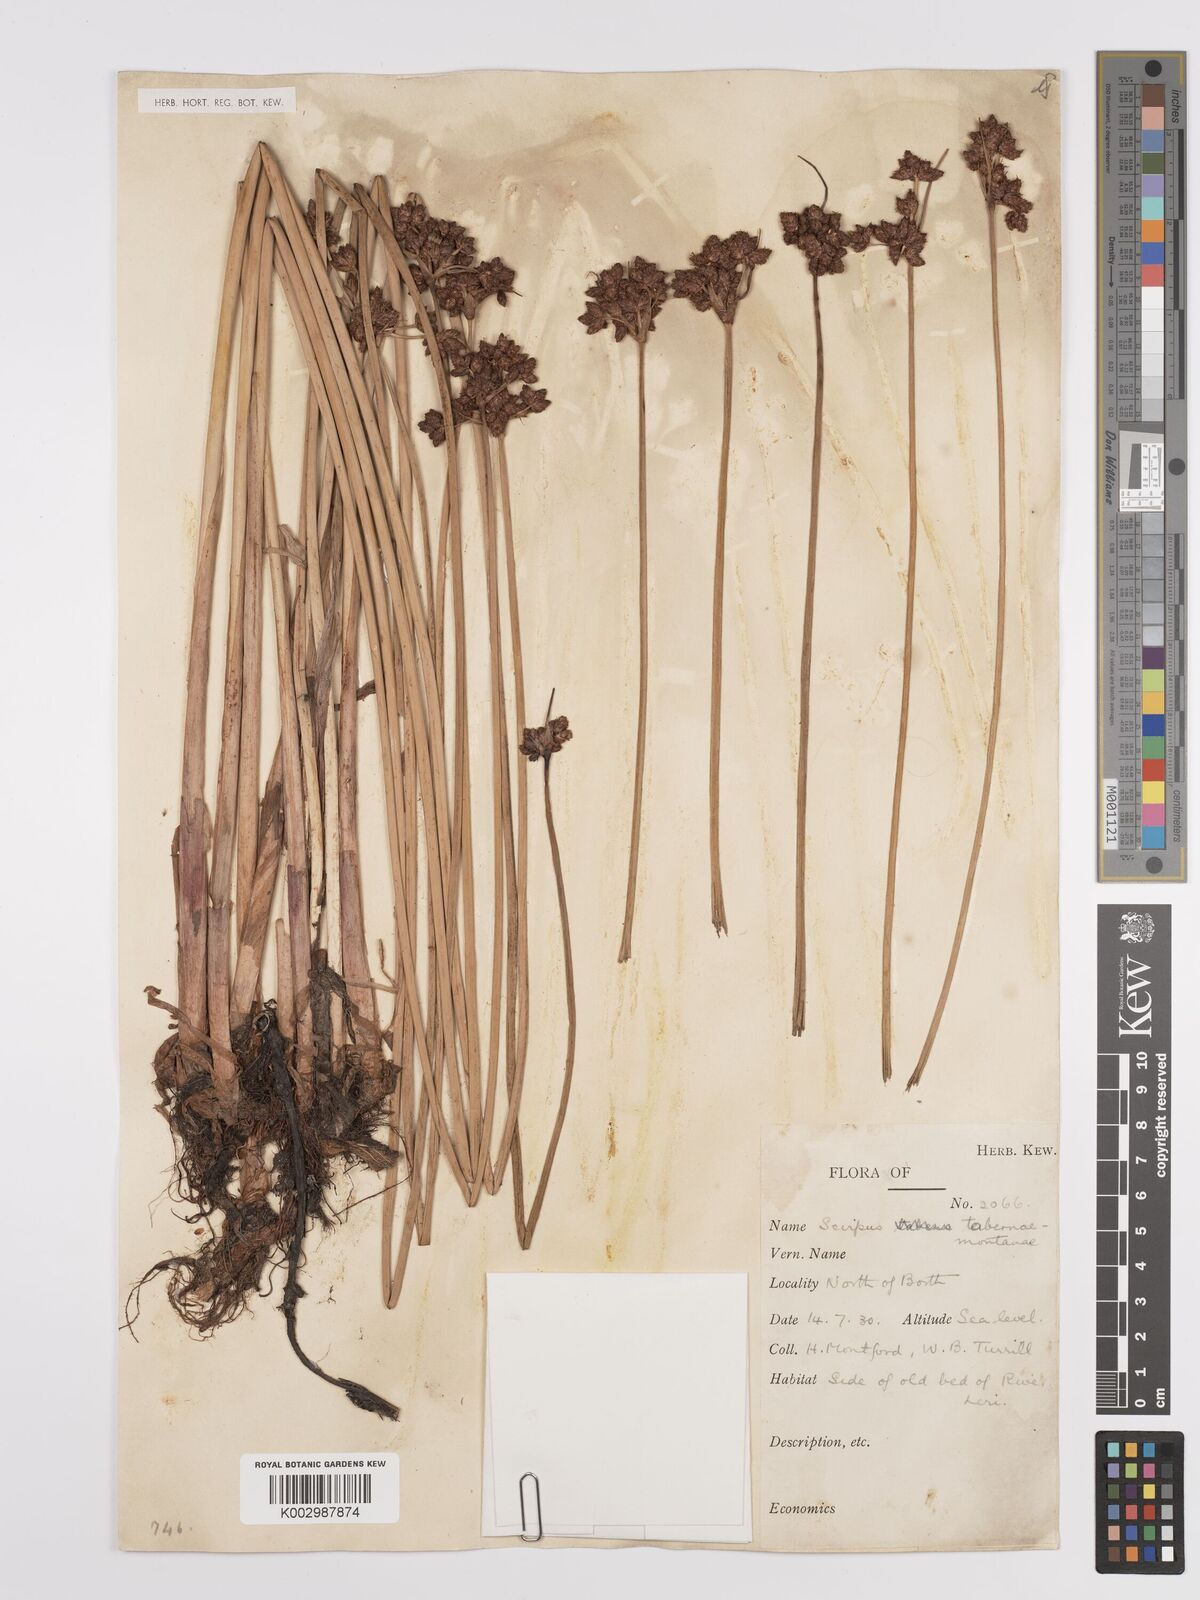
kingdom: Plantae
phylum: Tracheophyta
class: Liliopsida
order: Poales
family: Cyperaceae
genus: Schoenoplectus
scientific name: Schoenoplectus tabernaemontani
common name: Grey club-rush
